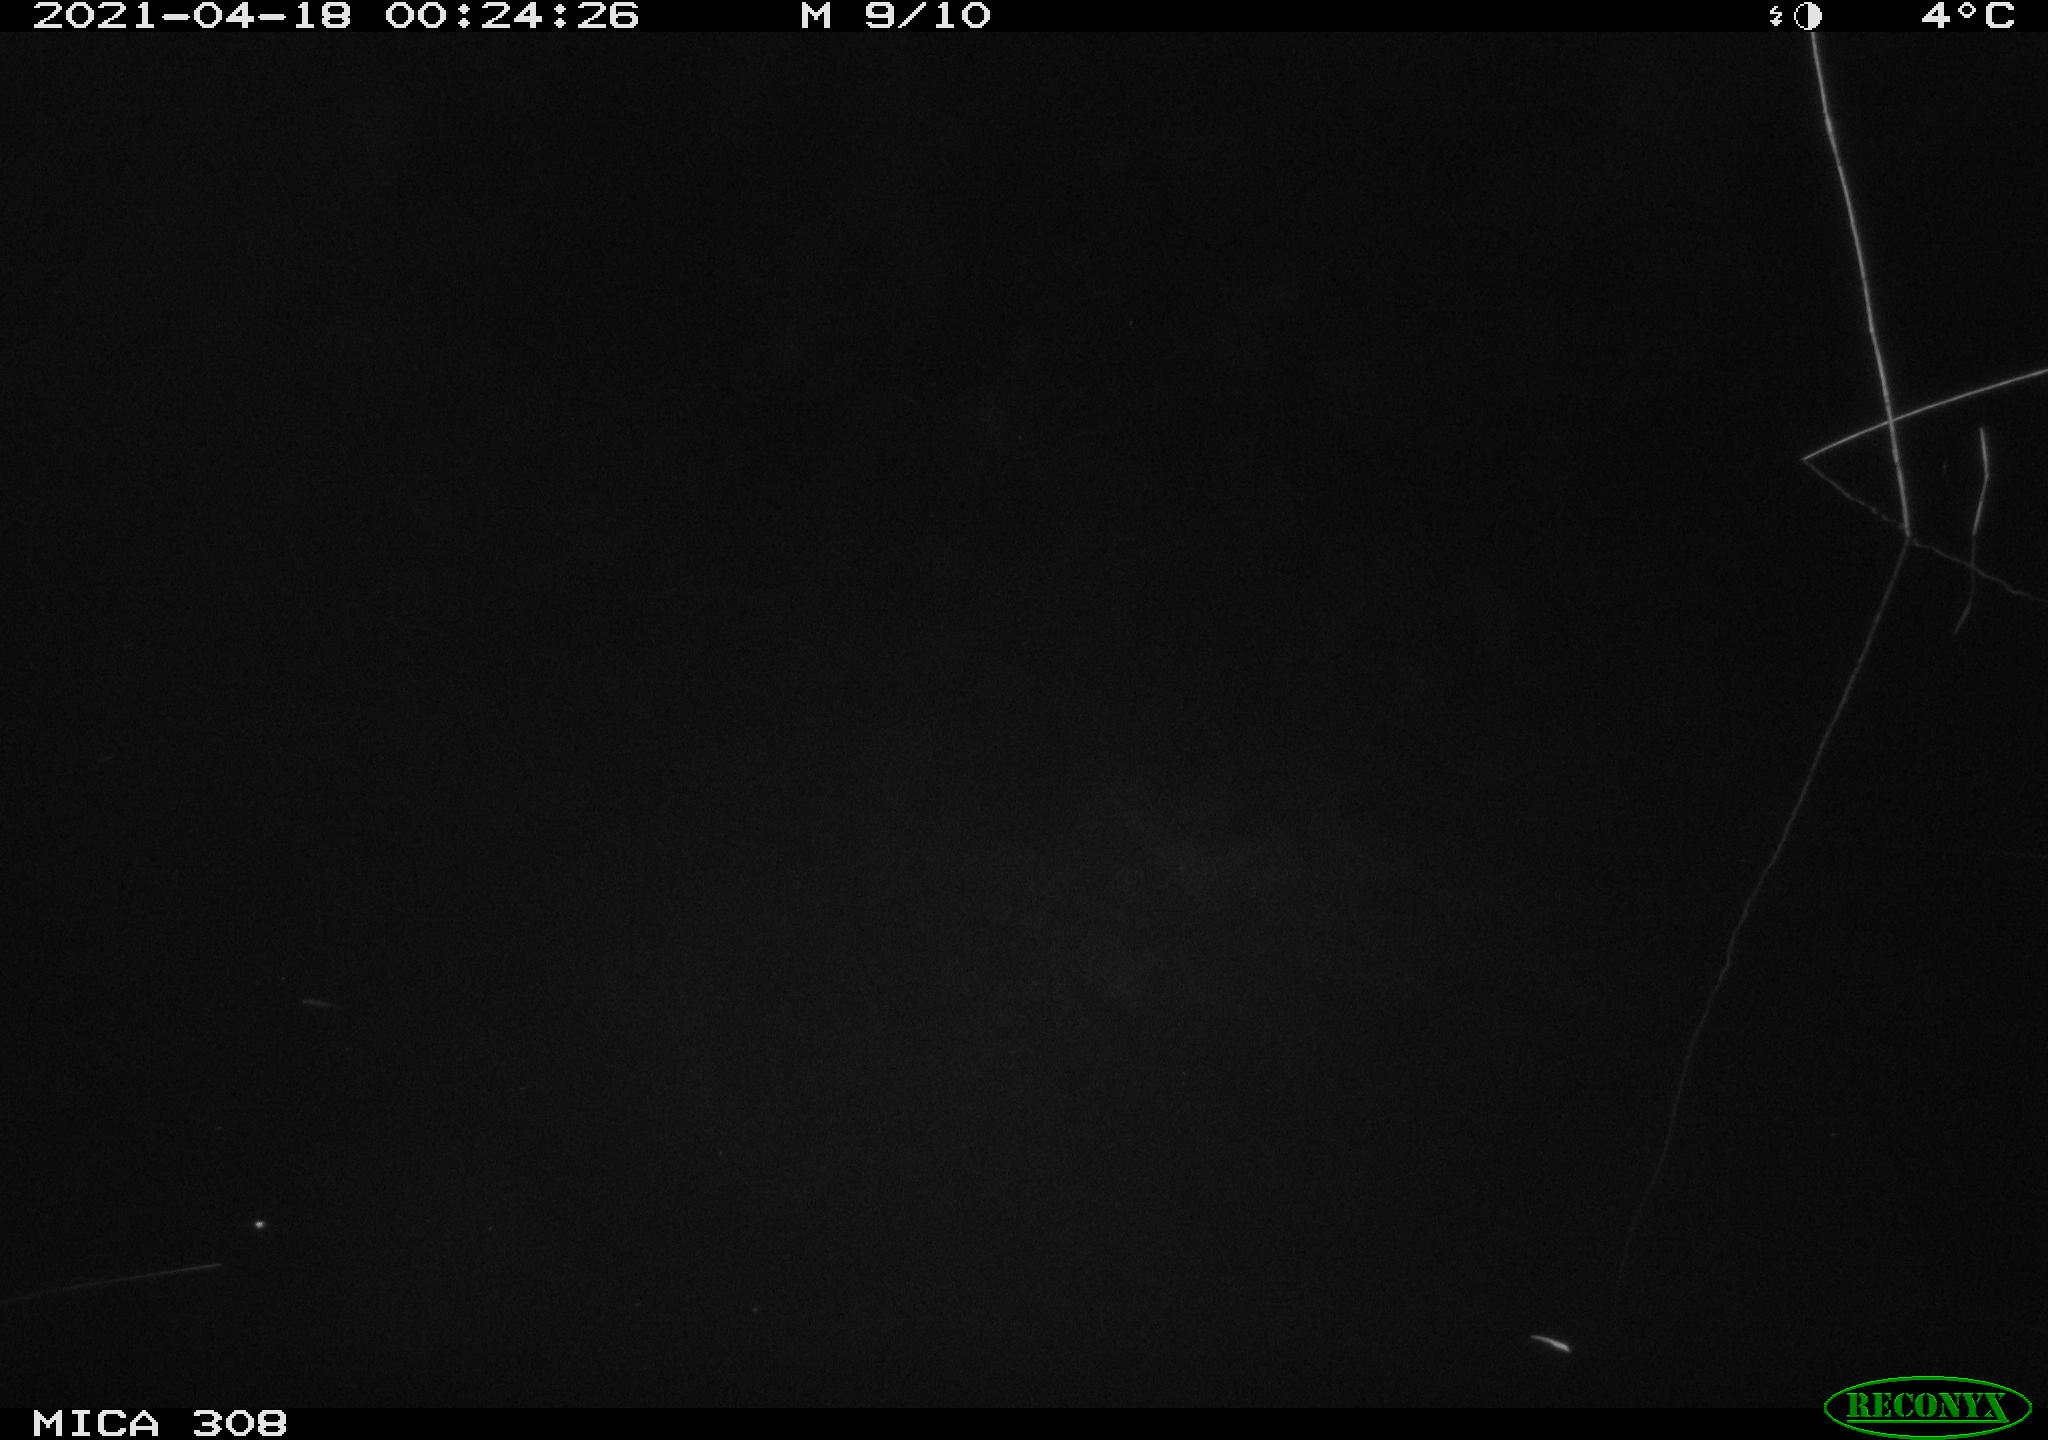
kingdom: Animalia
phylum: Chordata
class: Aves
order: Anseriformes
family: Anatidae
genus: Anas
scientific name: Anas platyrhynchos
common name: Mallard
